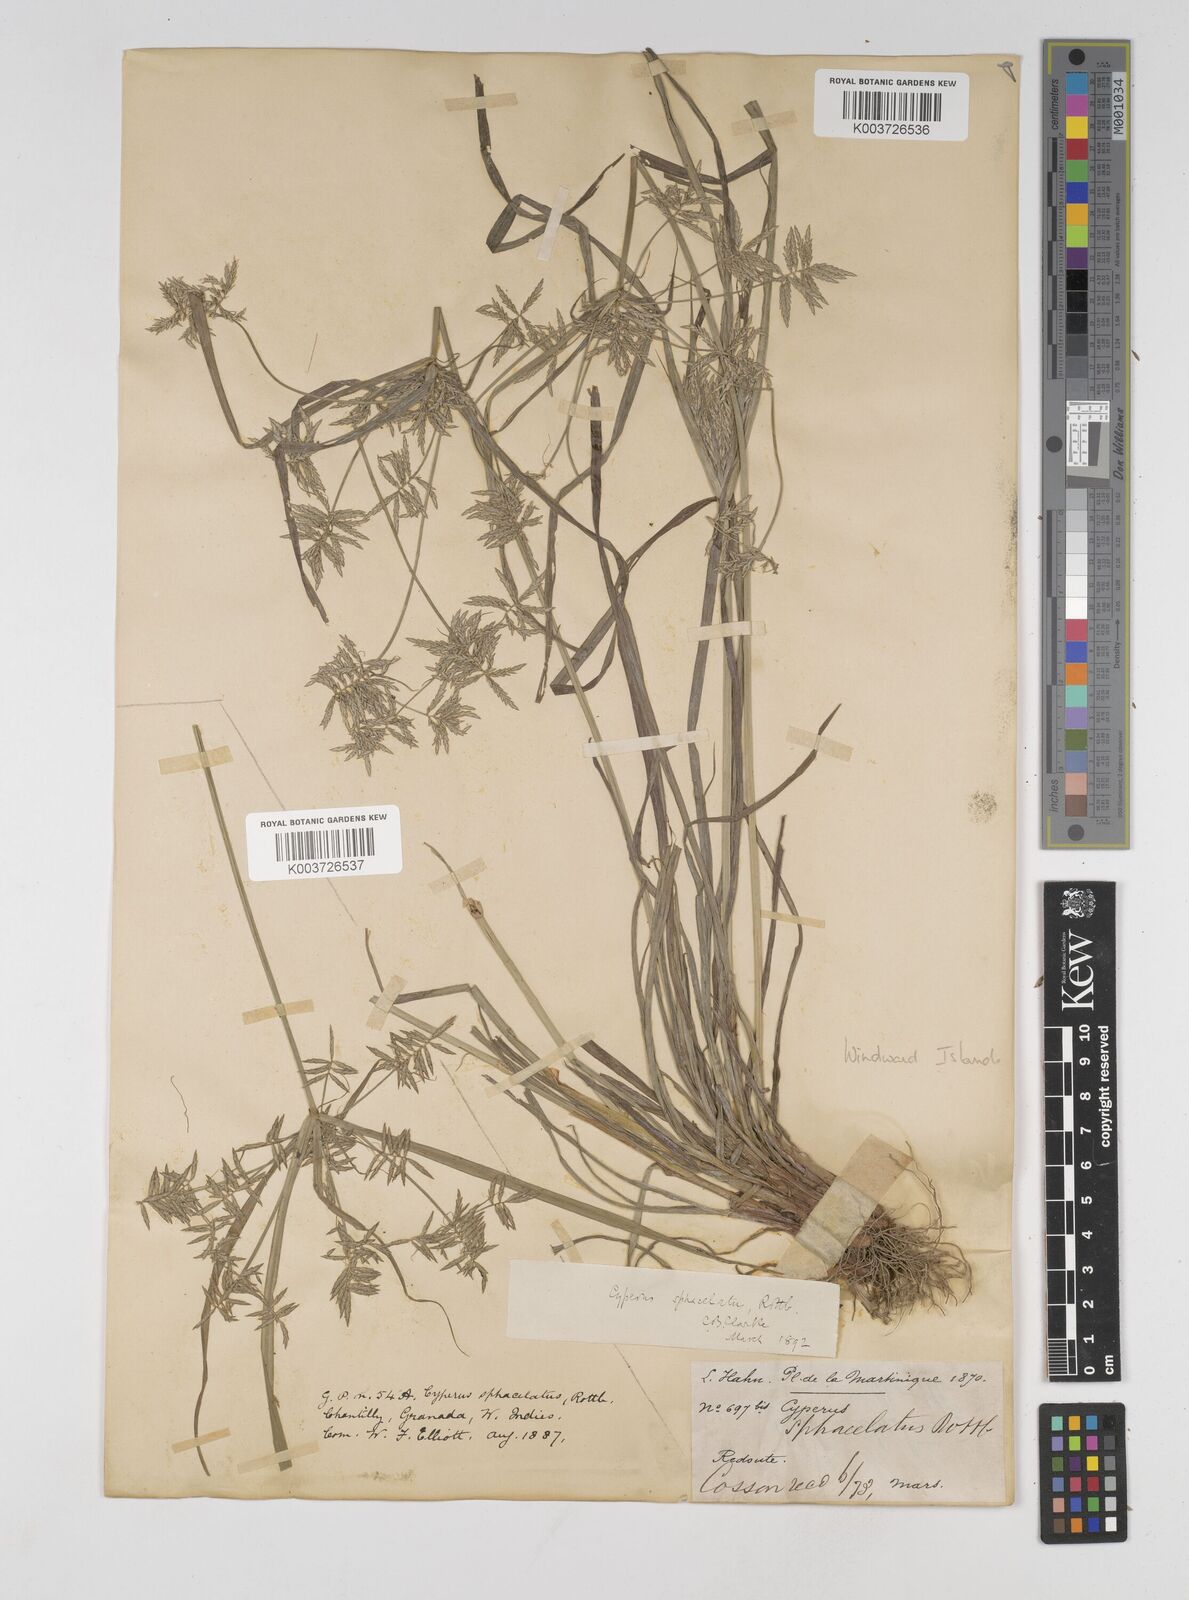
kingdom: Plantae
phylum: Tracheophyta
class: Liliopsida
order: Poales
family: Cyperaceae
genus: Cyperus
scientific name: Cyperus sphacelatus
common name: Roadside flatsedge
